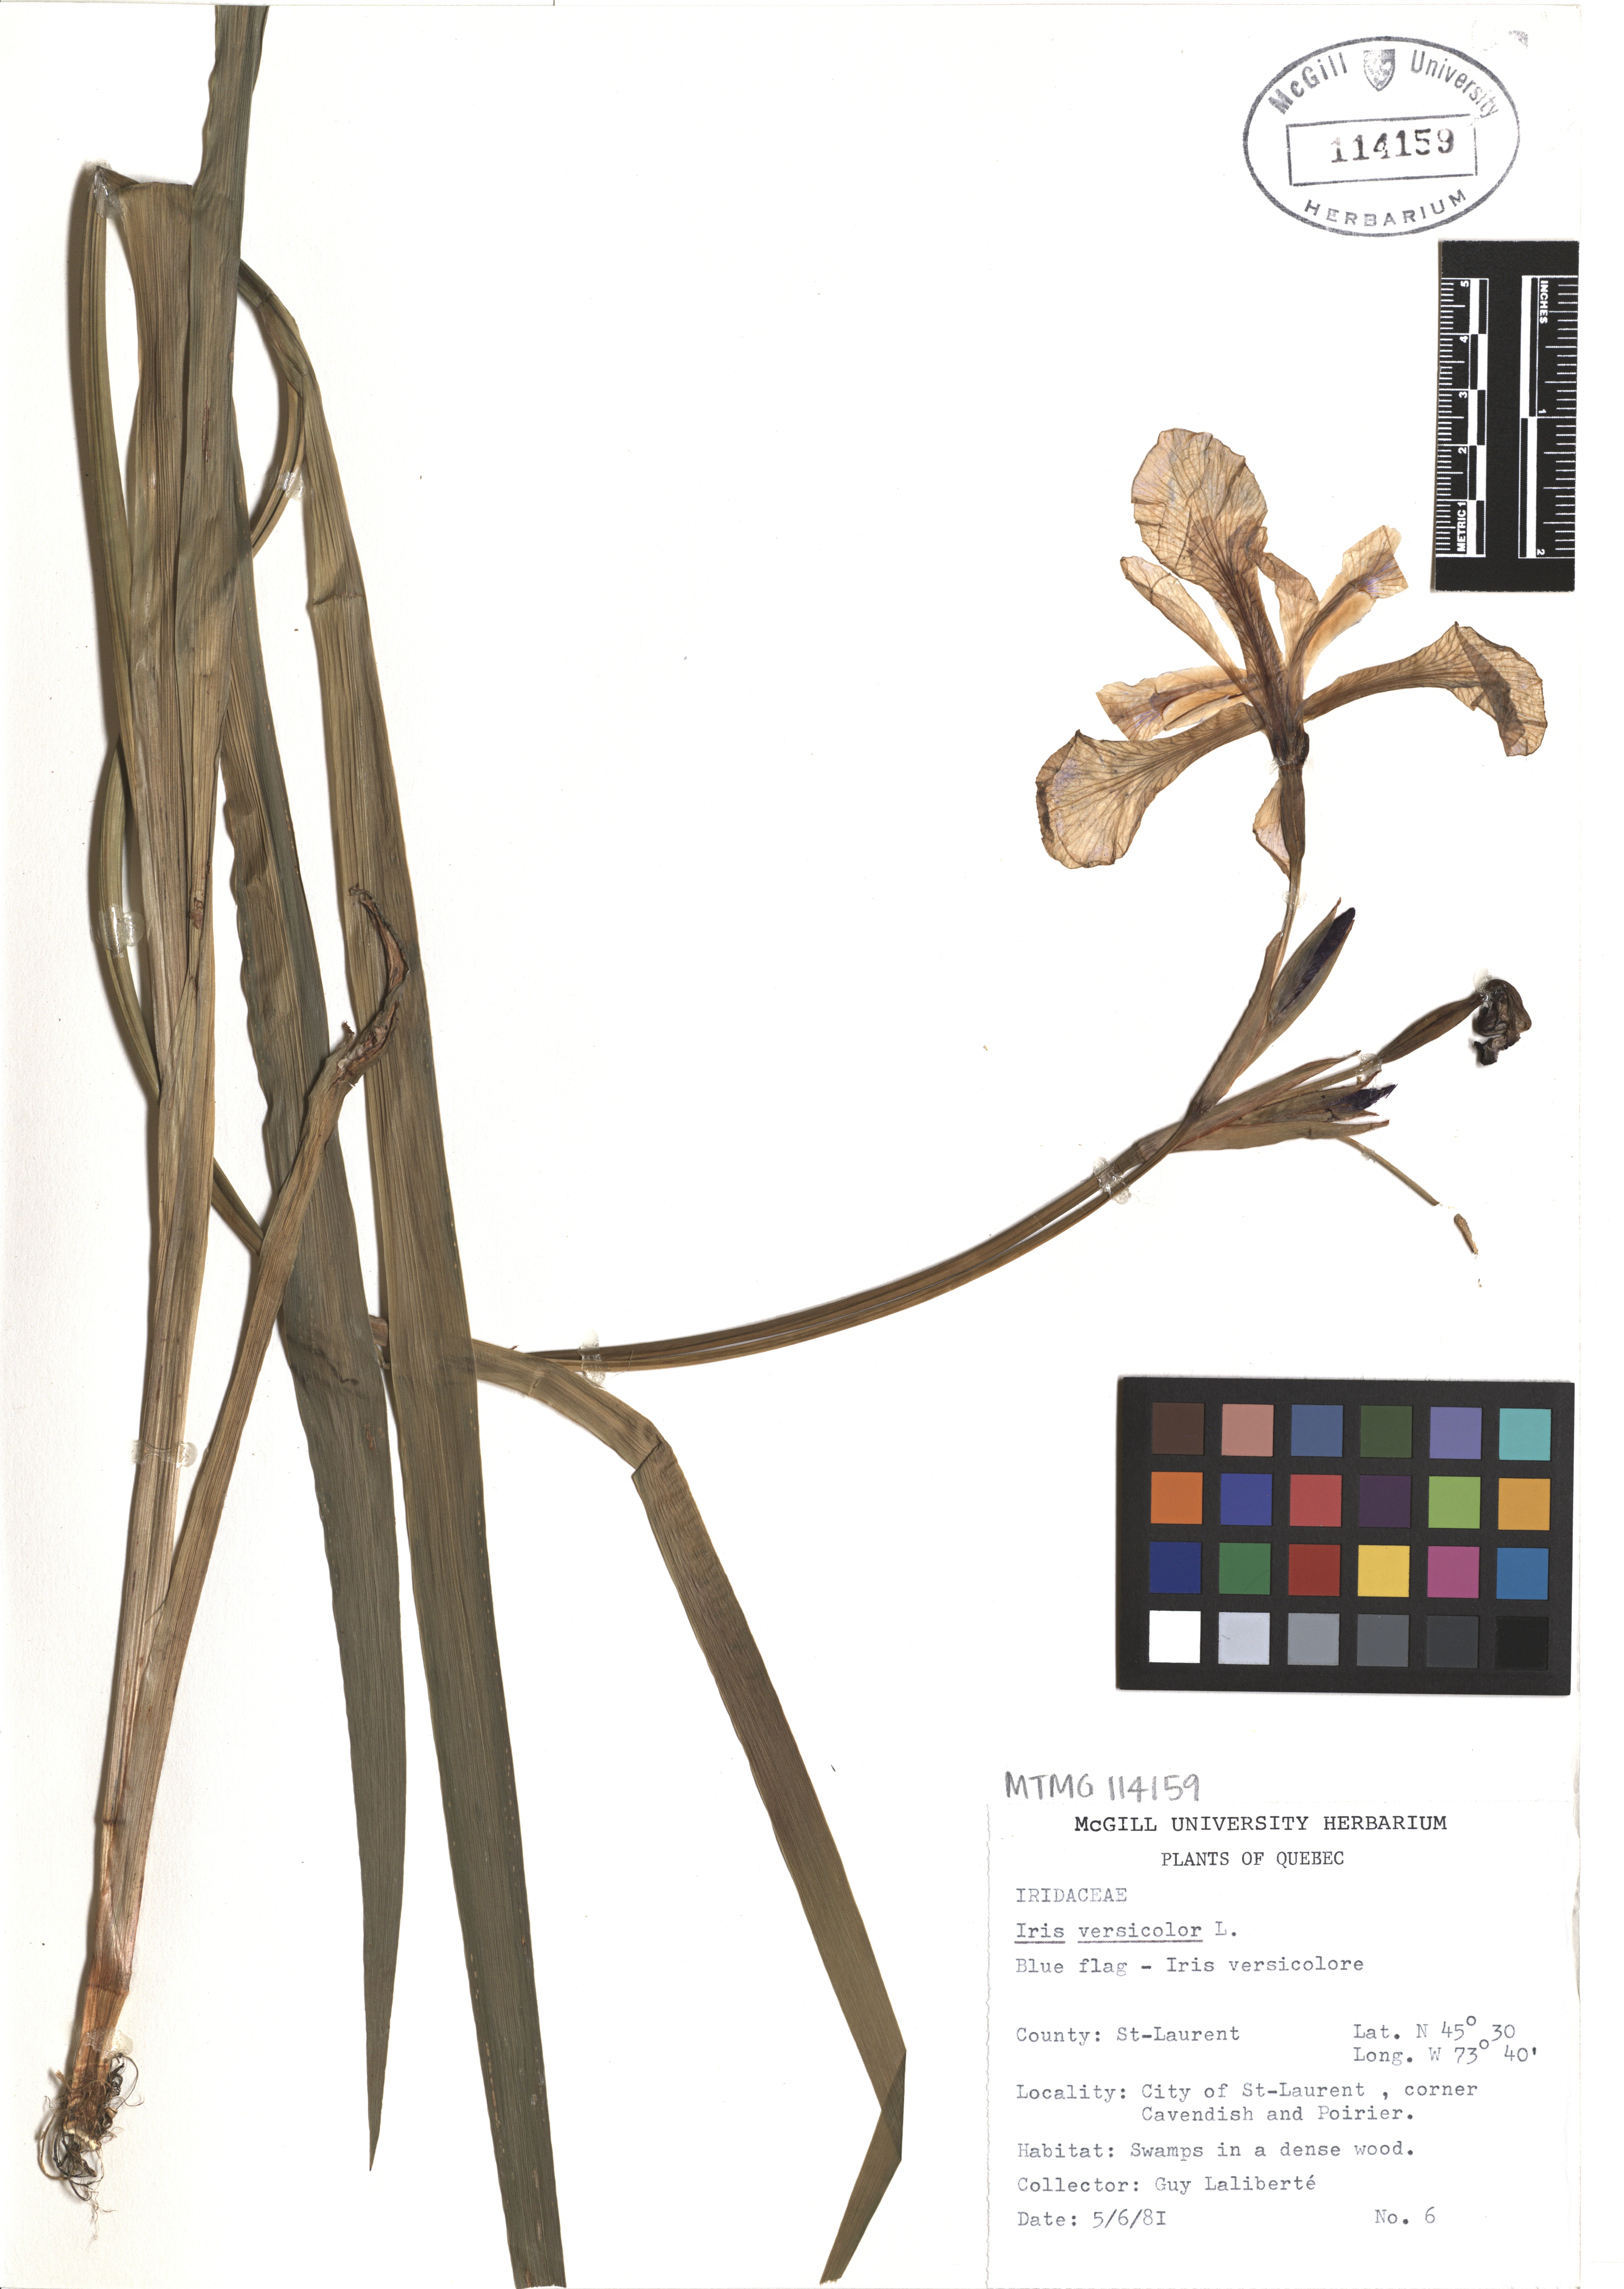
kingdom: Plantae
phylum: Tracheophyta
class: Liliopsida
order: Asparagales
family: Iridaceae
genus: Iris
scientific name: Iris versicolor
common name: Purple iris
